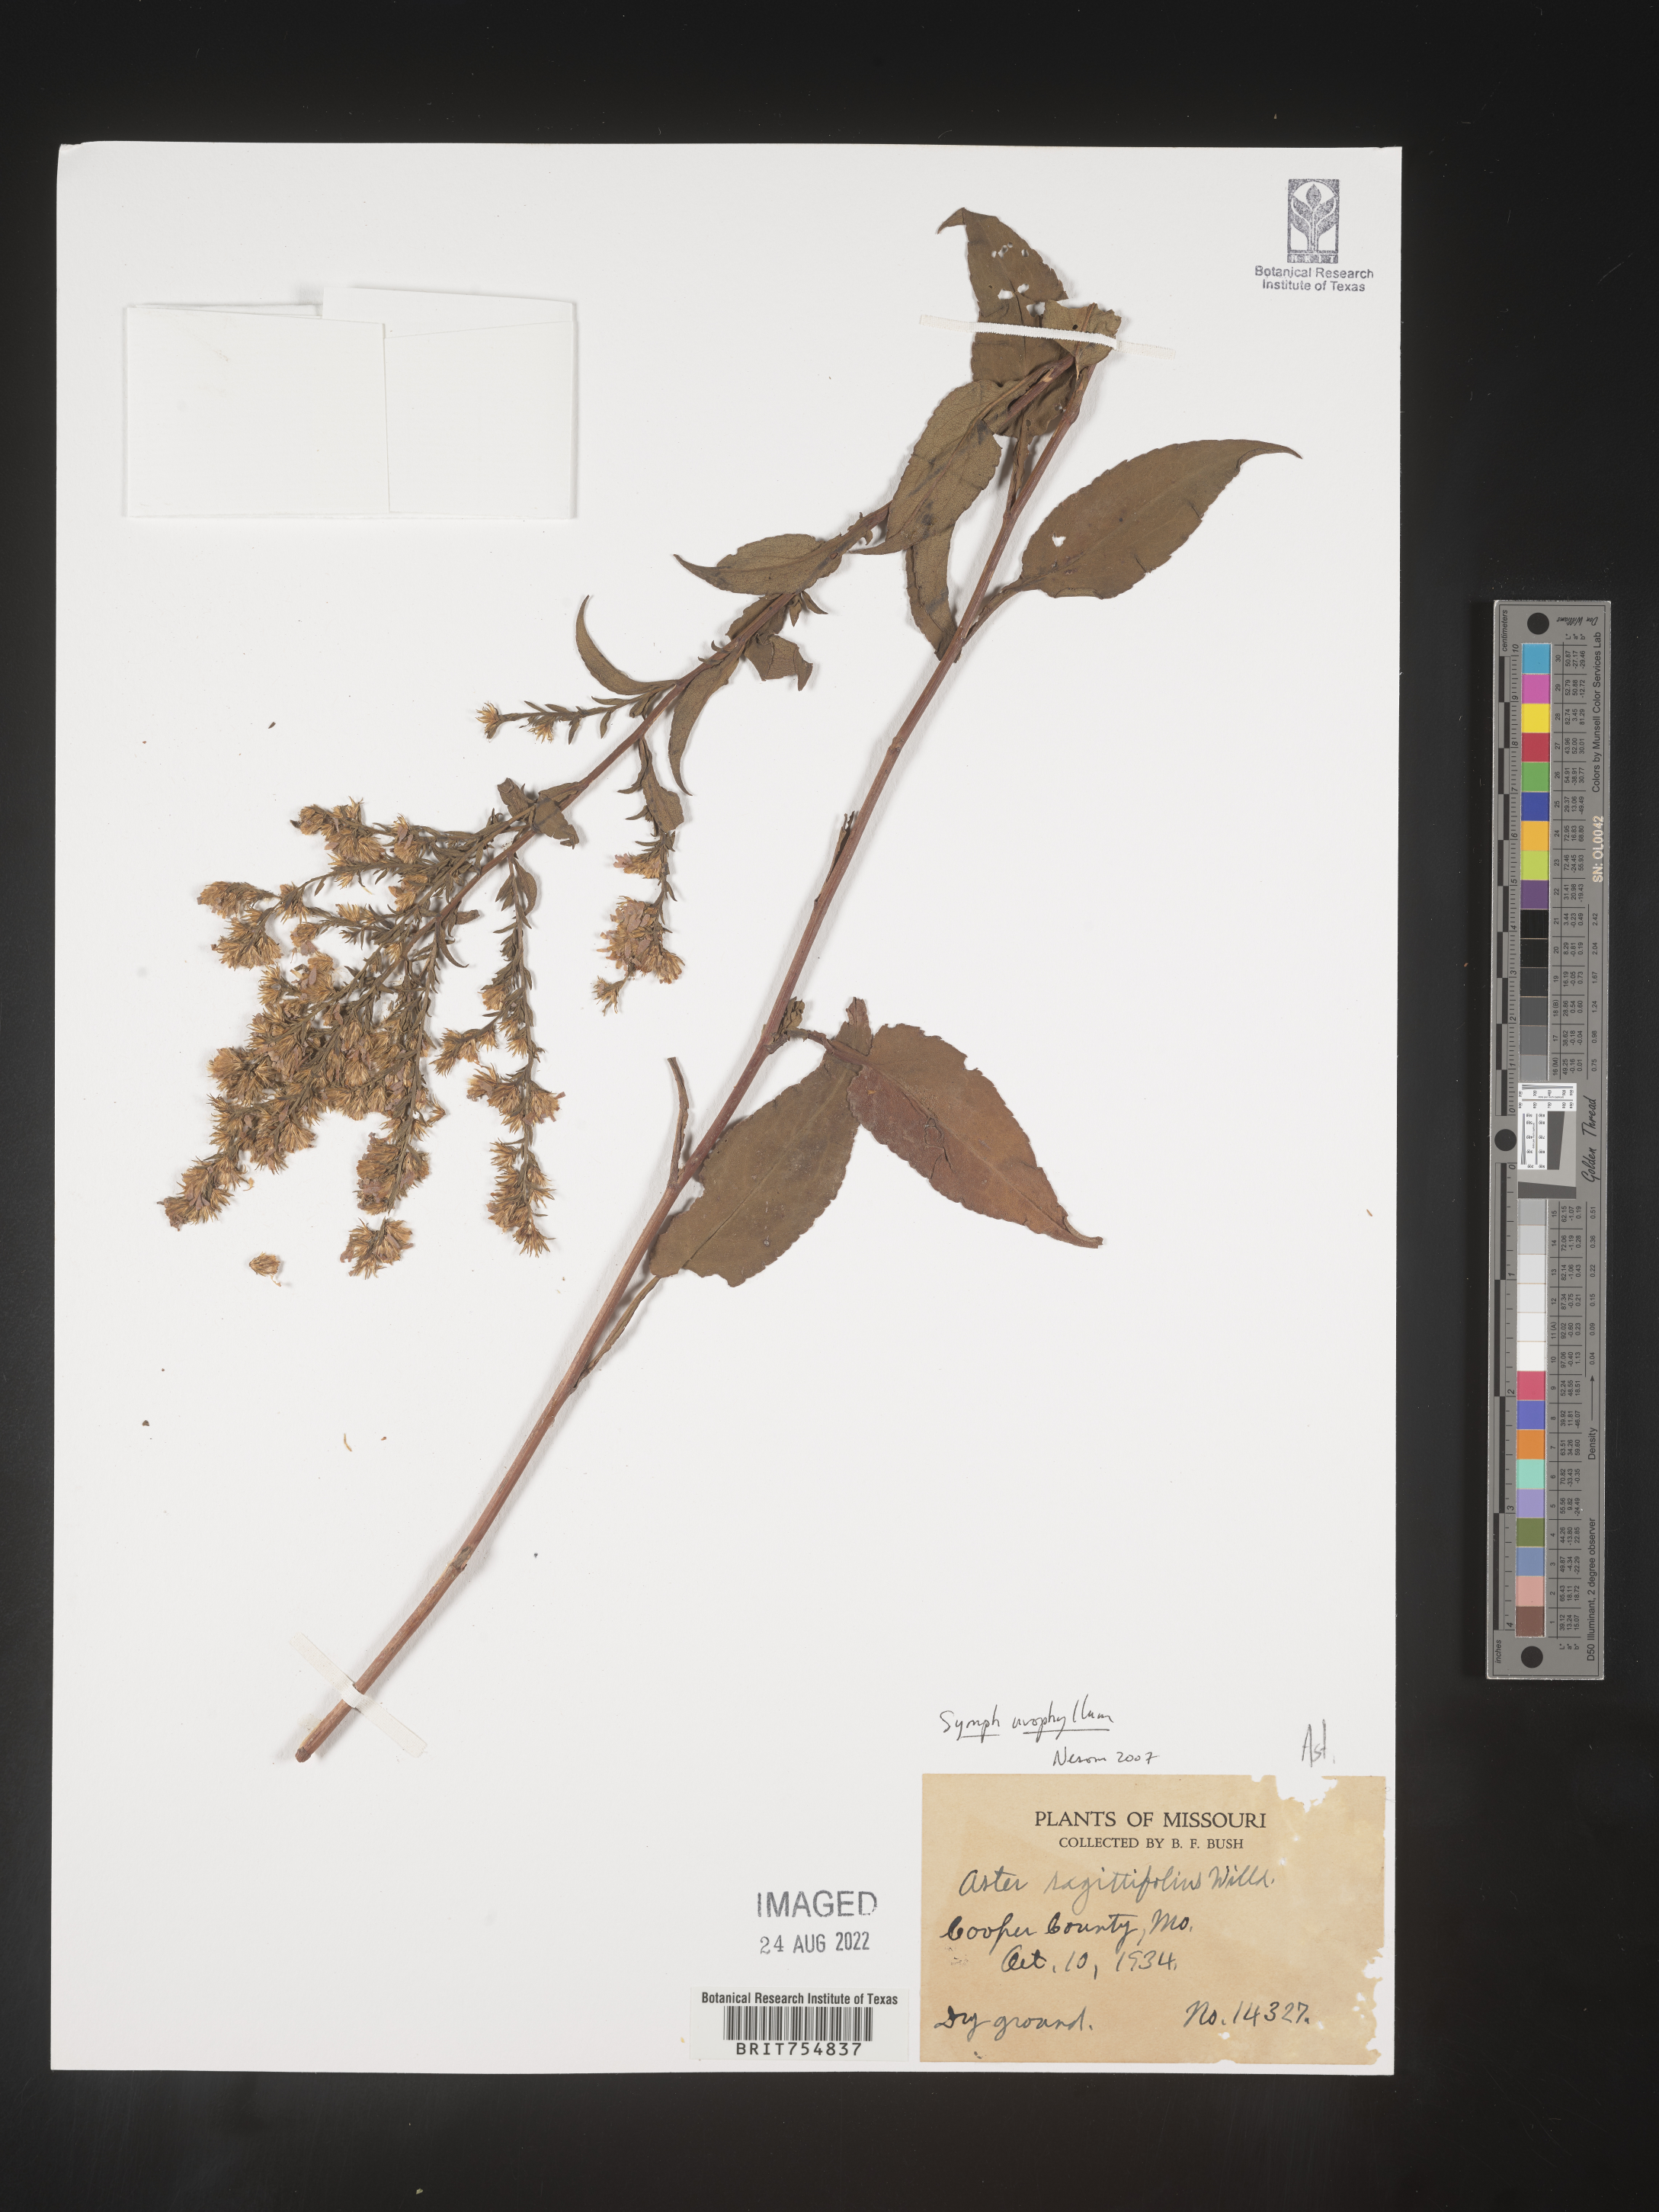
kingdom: Plantae
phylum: Tracheophyta
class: Magnoliopsida
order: Asterales
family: Asteraceae
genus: Symphyotrichum
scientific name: Symphyotrichum urophyllum
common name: Arrow-leaved aster
